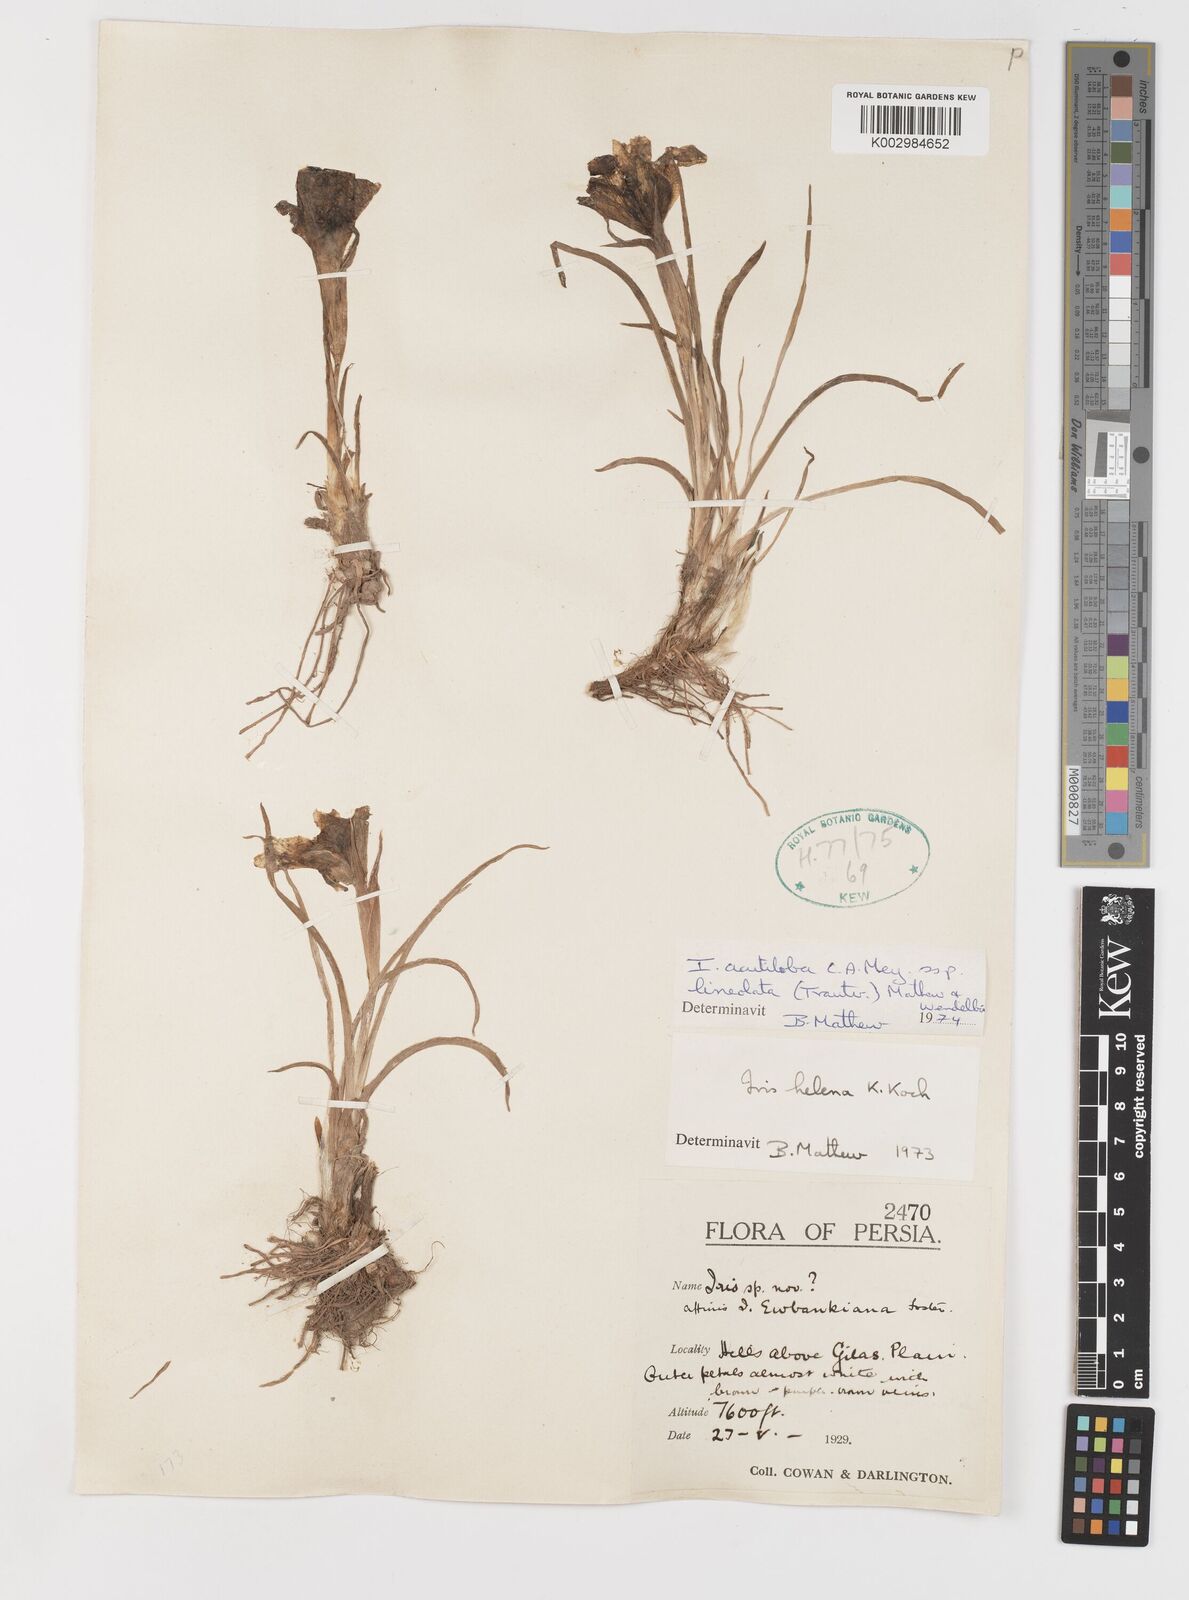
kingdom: Plantae
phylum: Tracheophyta
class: Liliopsida
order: Asparagales
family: Iridaceae
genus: Iris
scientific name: Iris acutiloba
